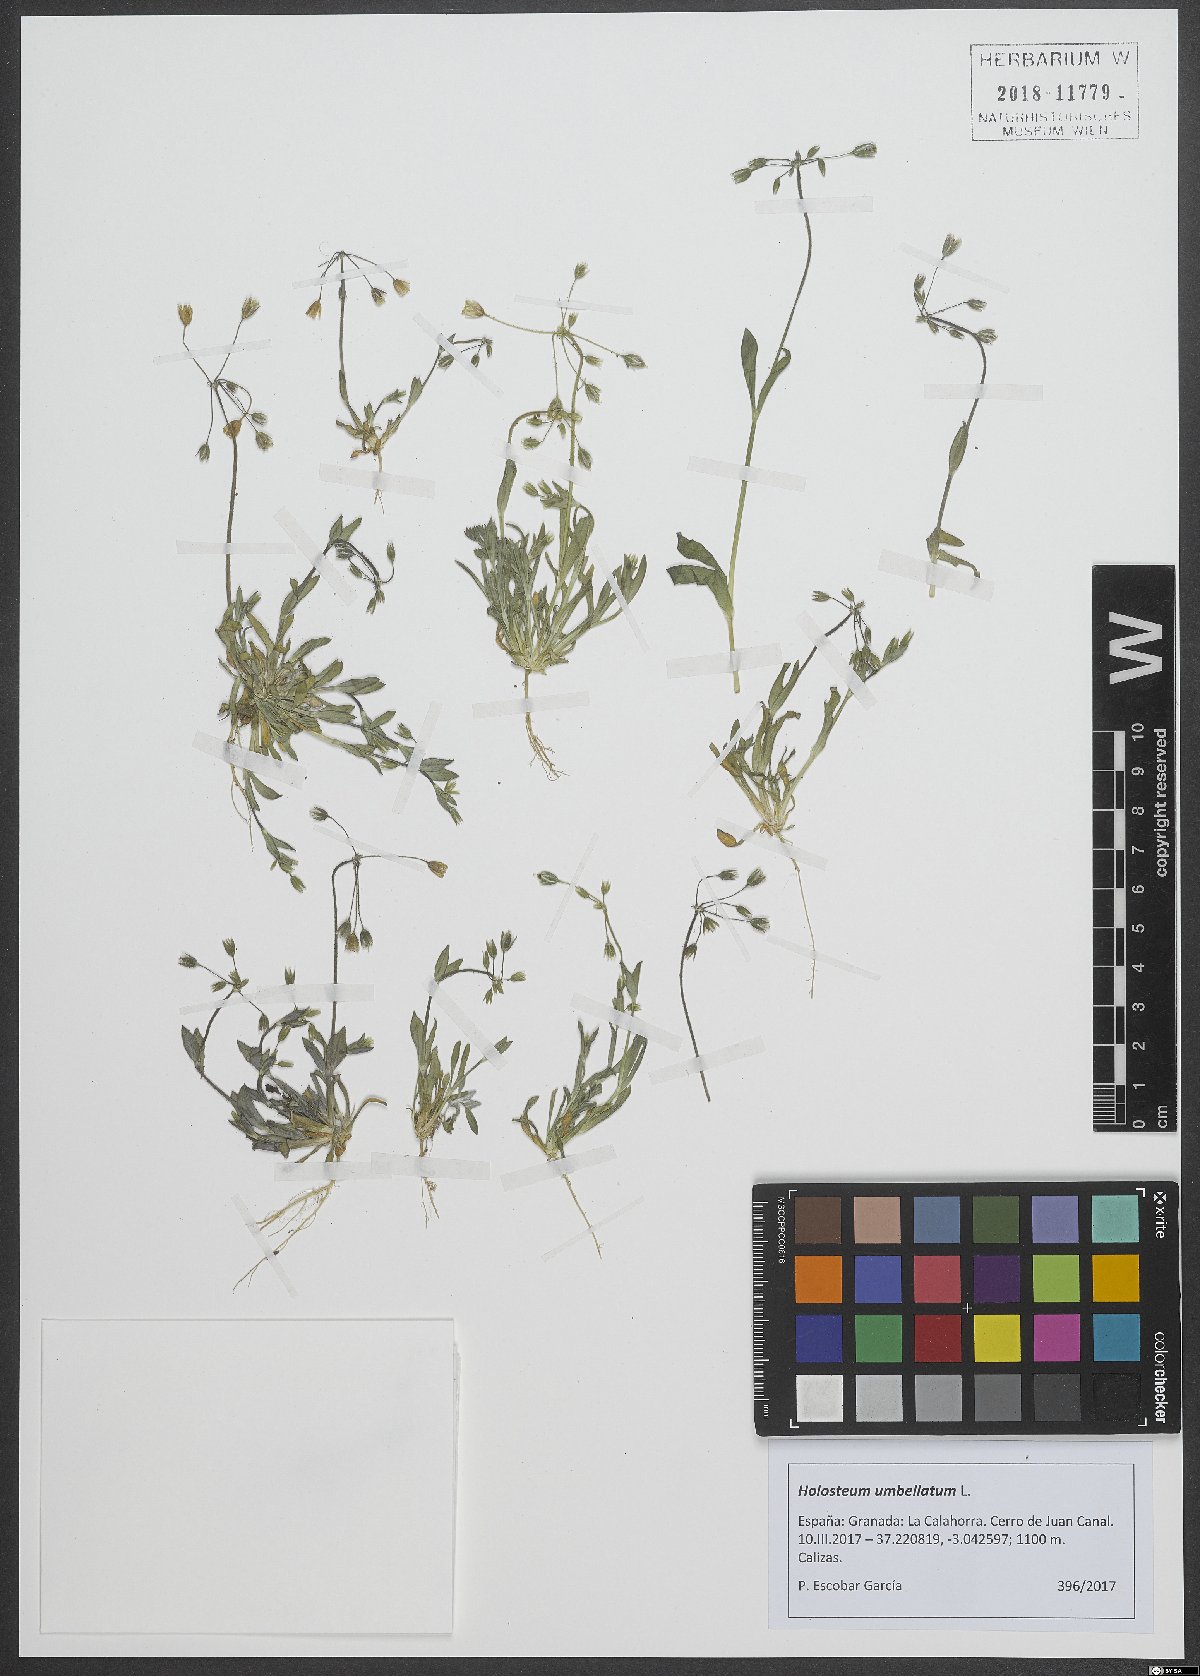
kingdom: Plantae
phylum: Tracheophyta
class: Magnoliopsida
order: Caryophyllales
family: Caryophyllaceae
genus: Holosteum
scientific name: Holosteum umbellatum
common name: Jagged chickweed
